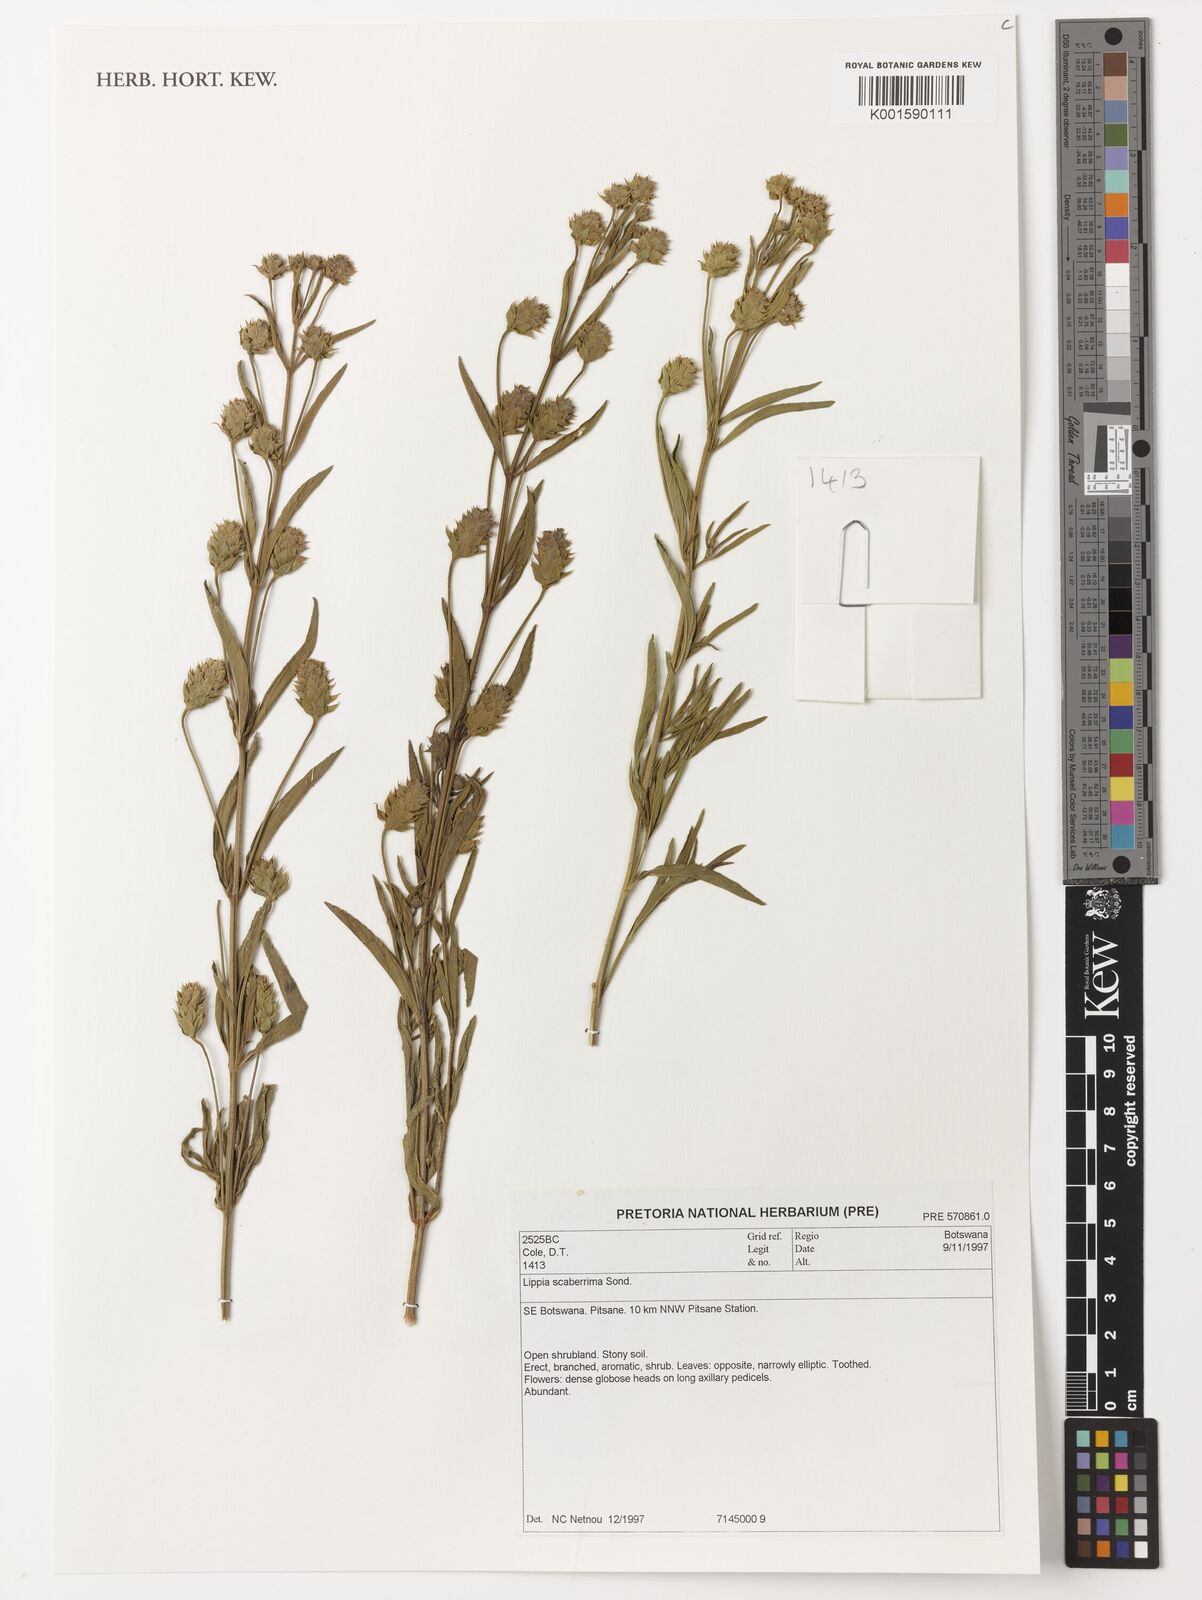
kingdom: Plantae
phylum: Tracheophyta
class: Magnoliopsida
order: Lamiales
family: Verbenaceae
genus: Lippia
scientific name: Lippia scaberrima
